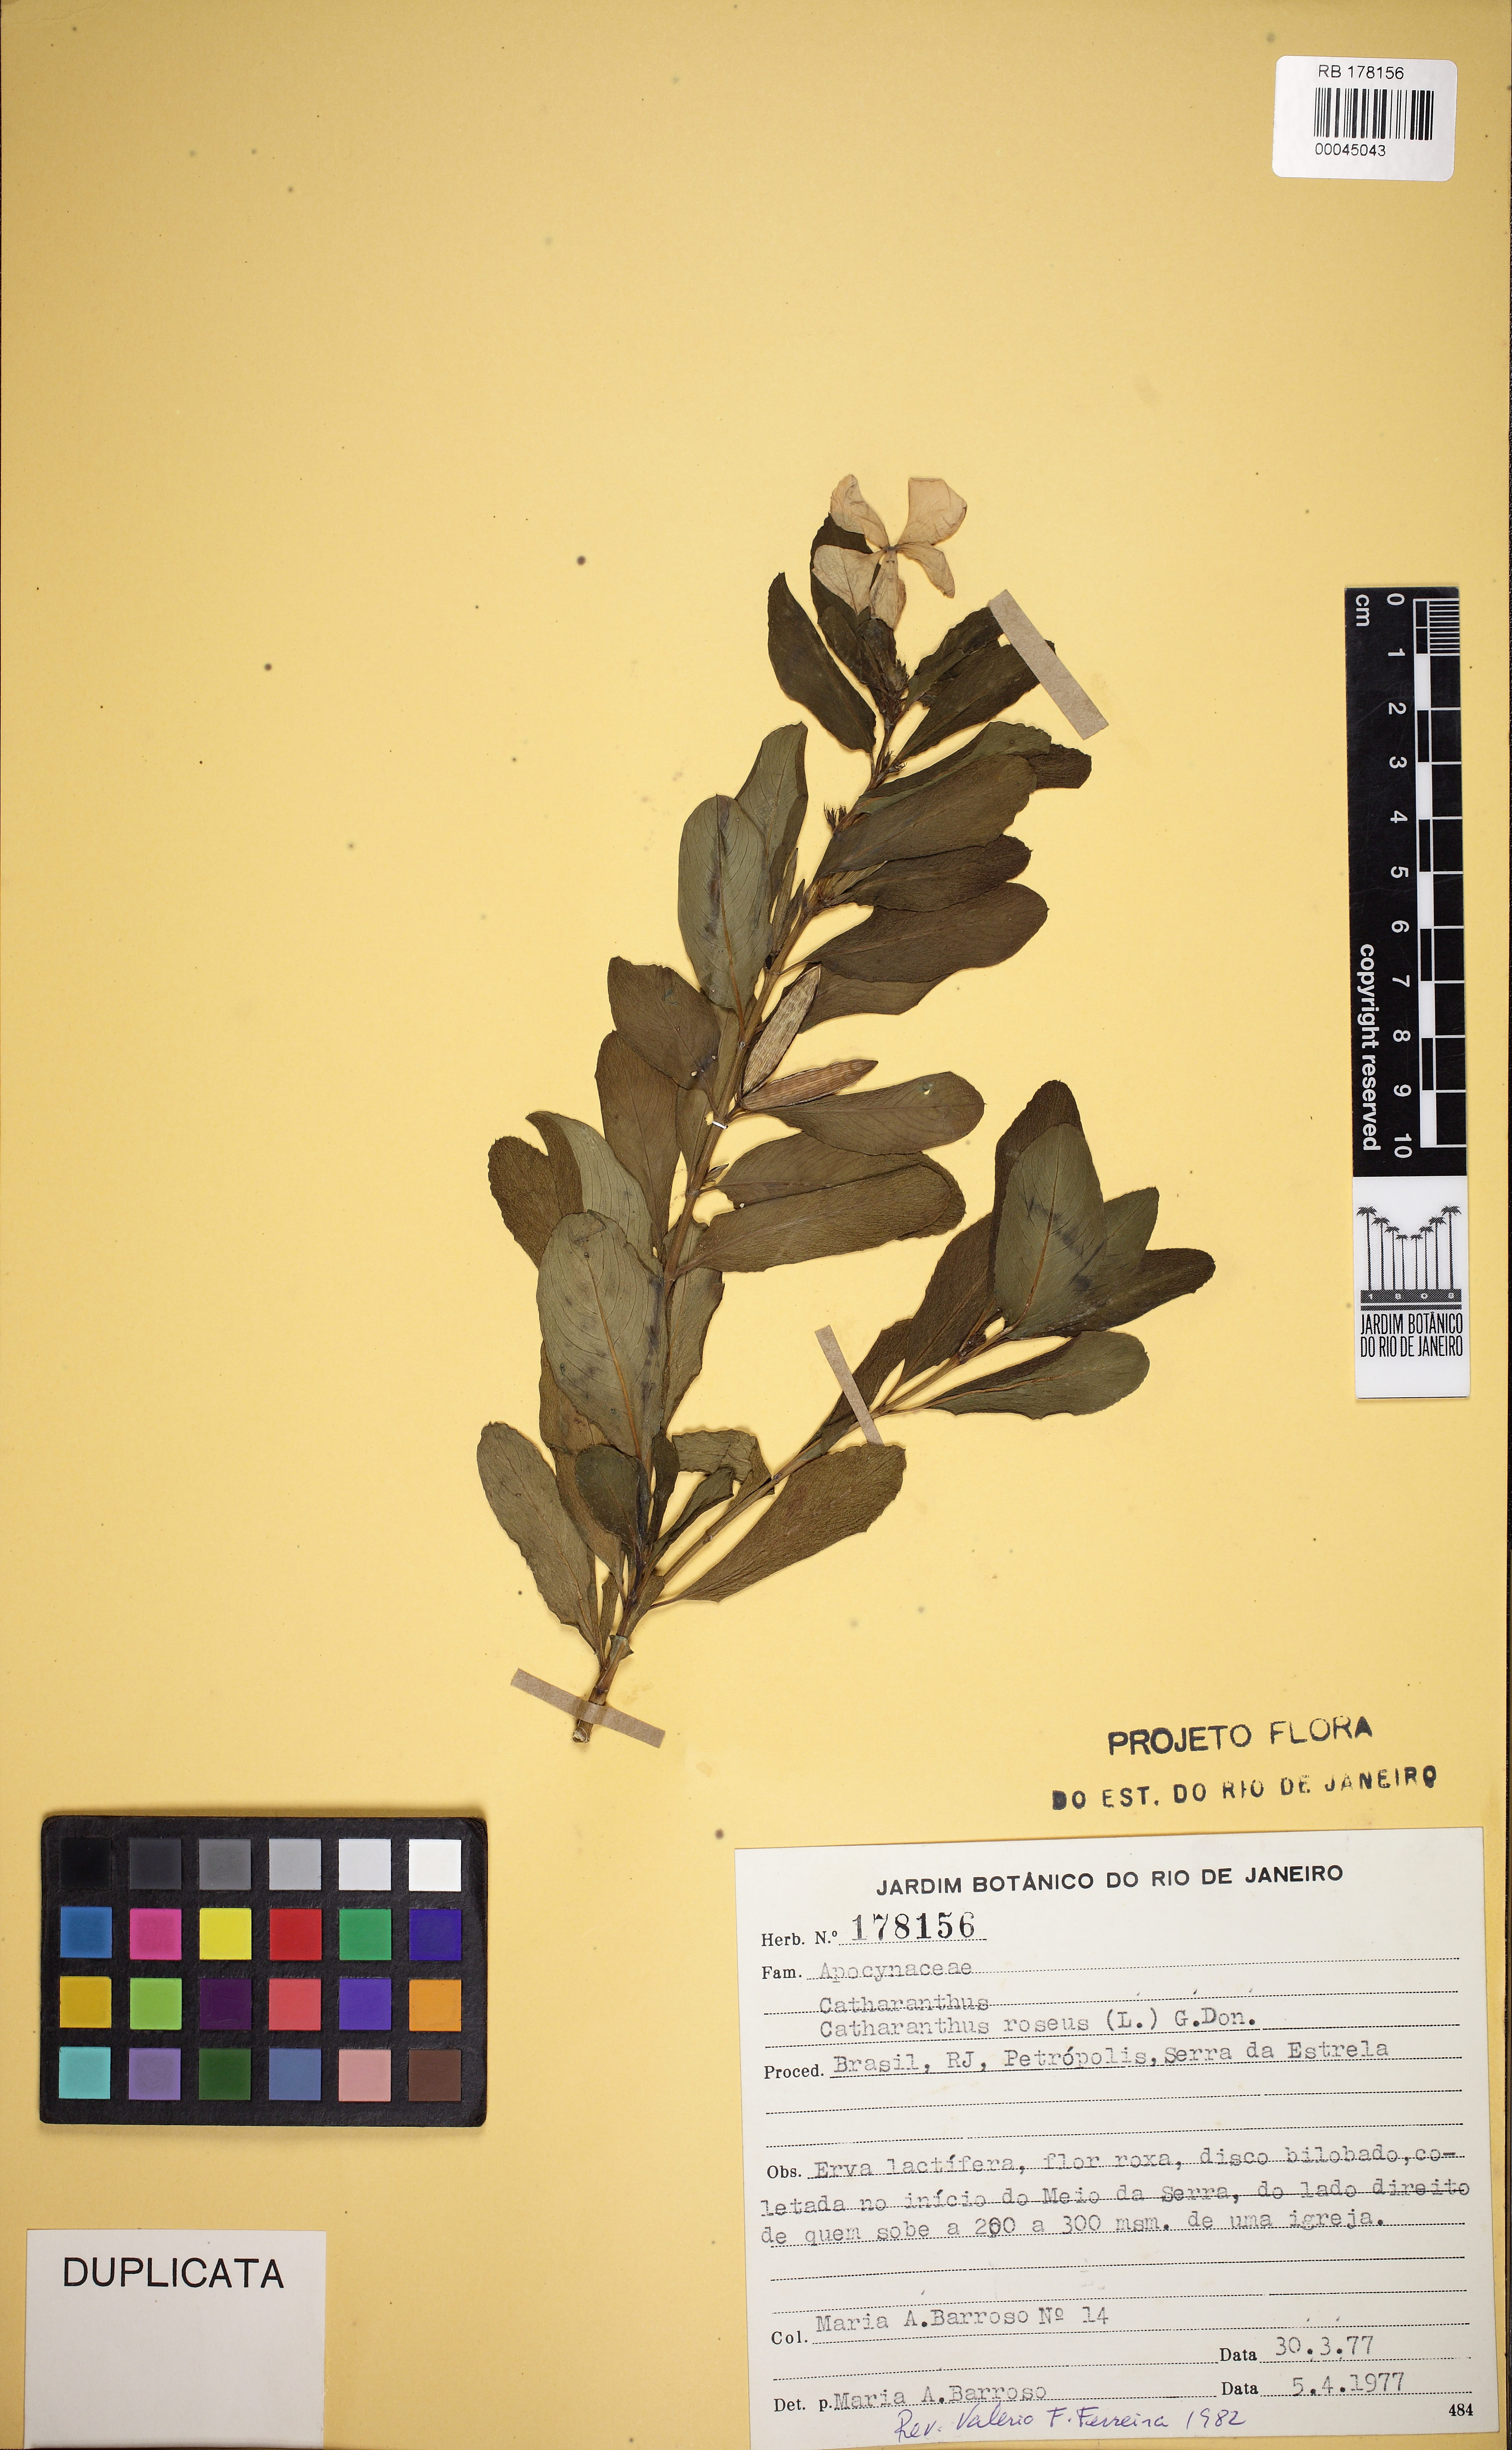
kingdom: Plantae
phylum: Tracheophyta
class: Magnoliopsida
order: Gentianales
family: Apocynaceae
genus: Catharanthus
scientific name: Catharanthus roseus
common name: Madagascar periwinkle
